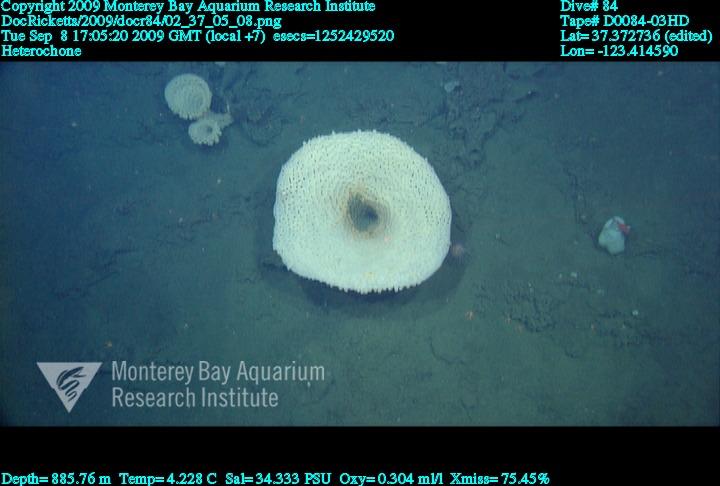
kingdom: Animalia
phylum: Porifera
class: Hexactinellida
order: Sceptrulophora
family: Aphrocallistidae
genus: Heterochone
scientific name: Heterochone
